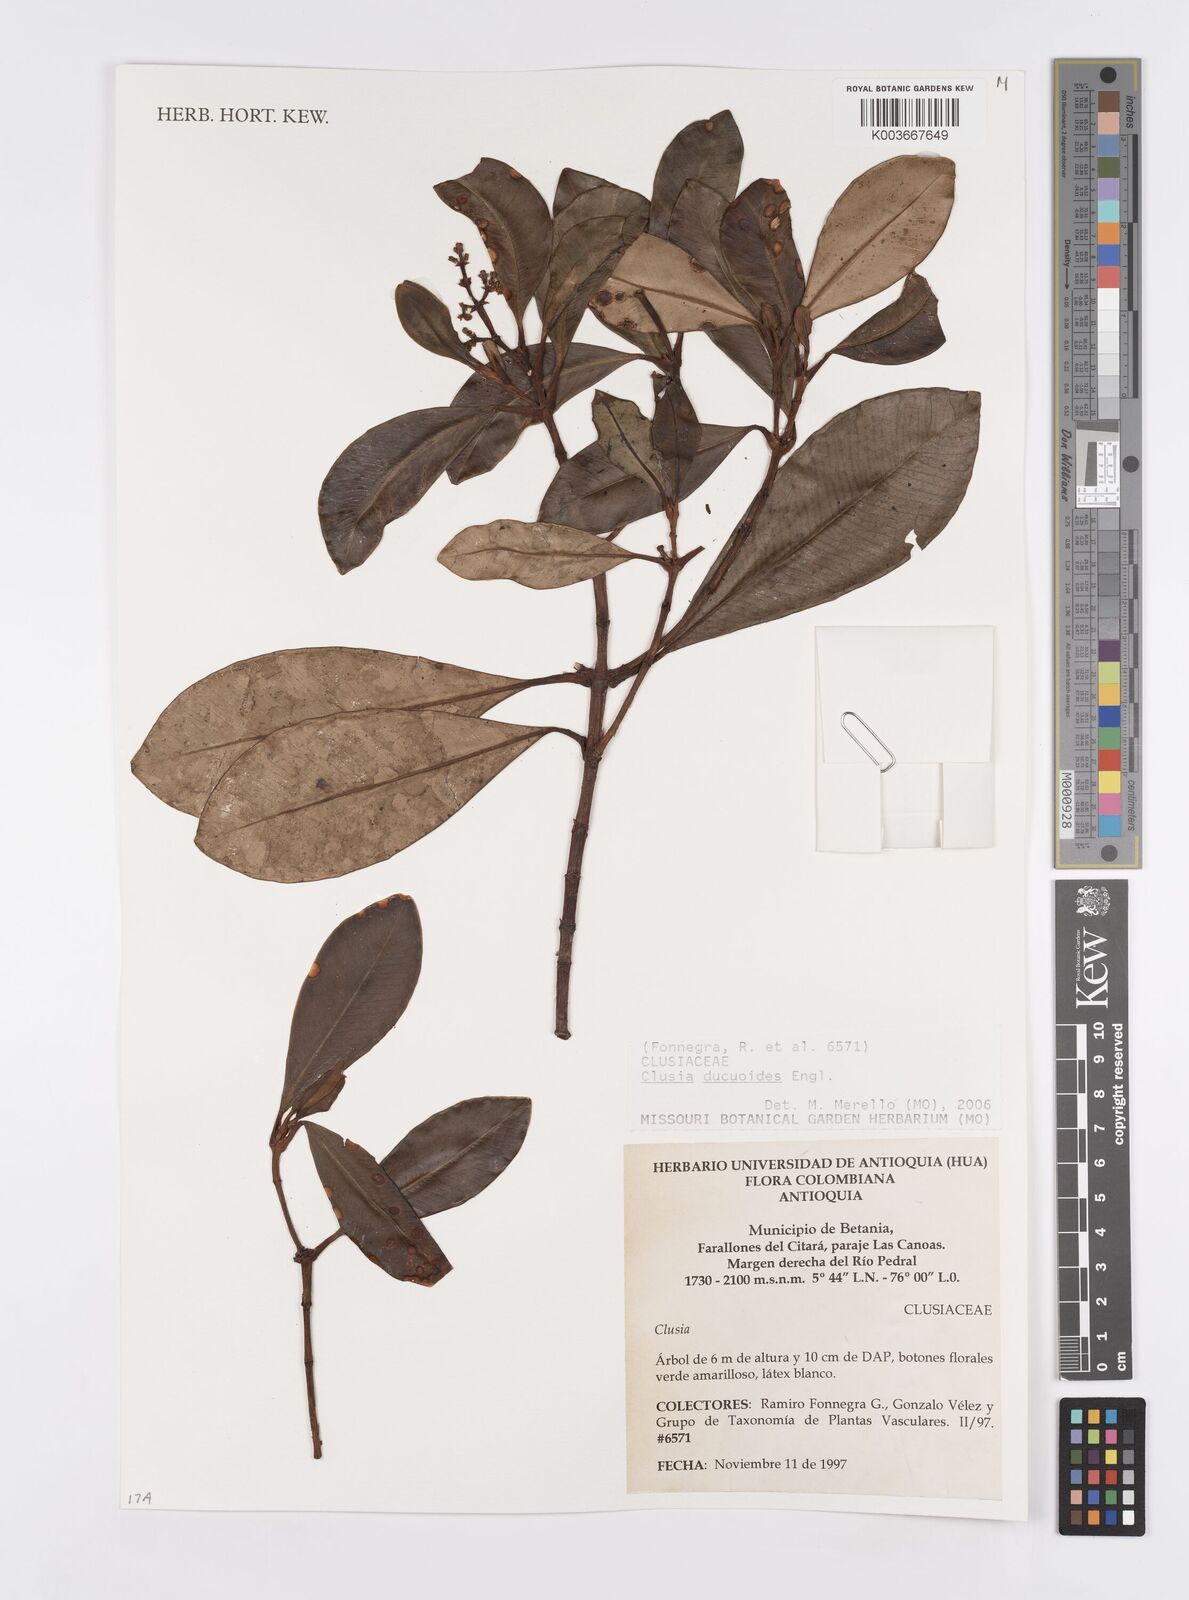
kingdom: Plantae
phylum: Tracheophyta
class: Magnoliopsida
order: Malpighiales
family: Clusiaceae
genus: Clusia
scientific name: Clusia ducuoides
